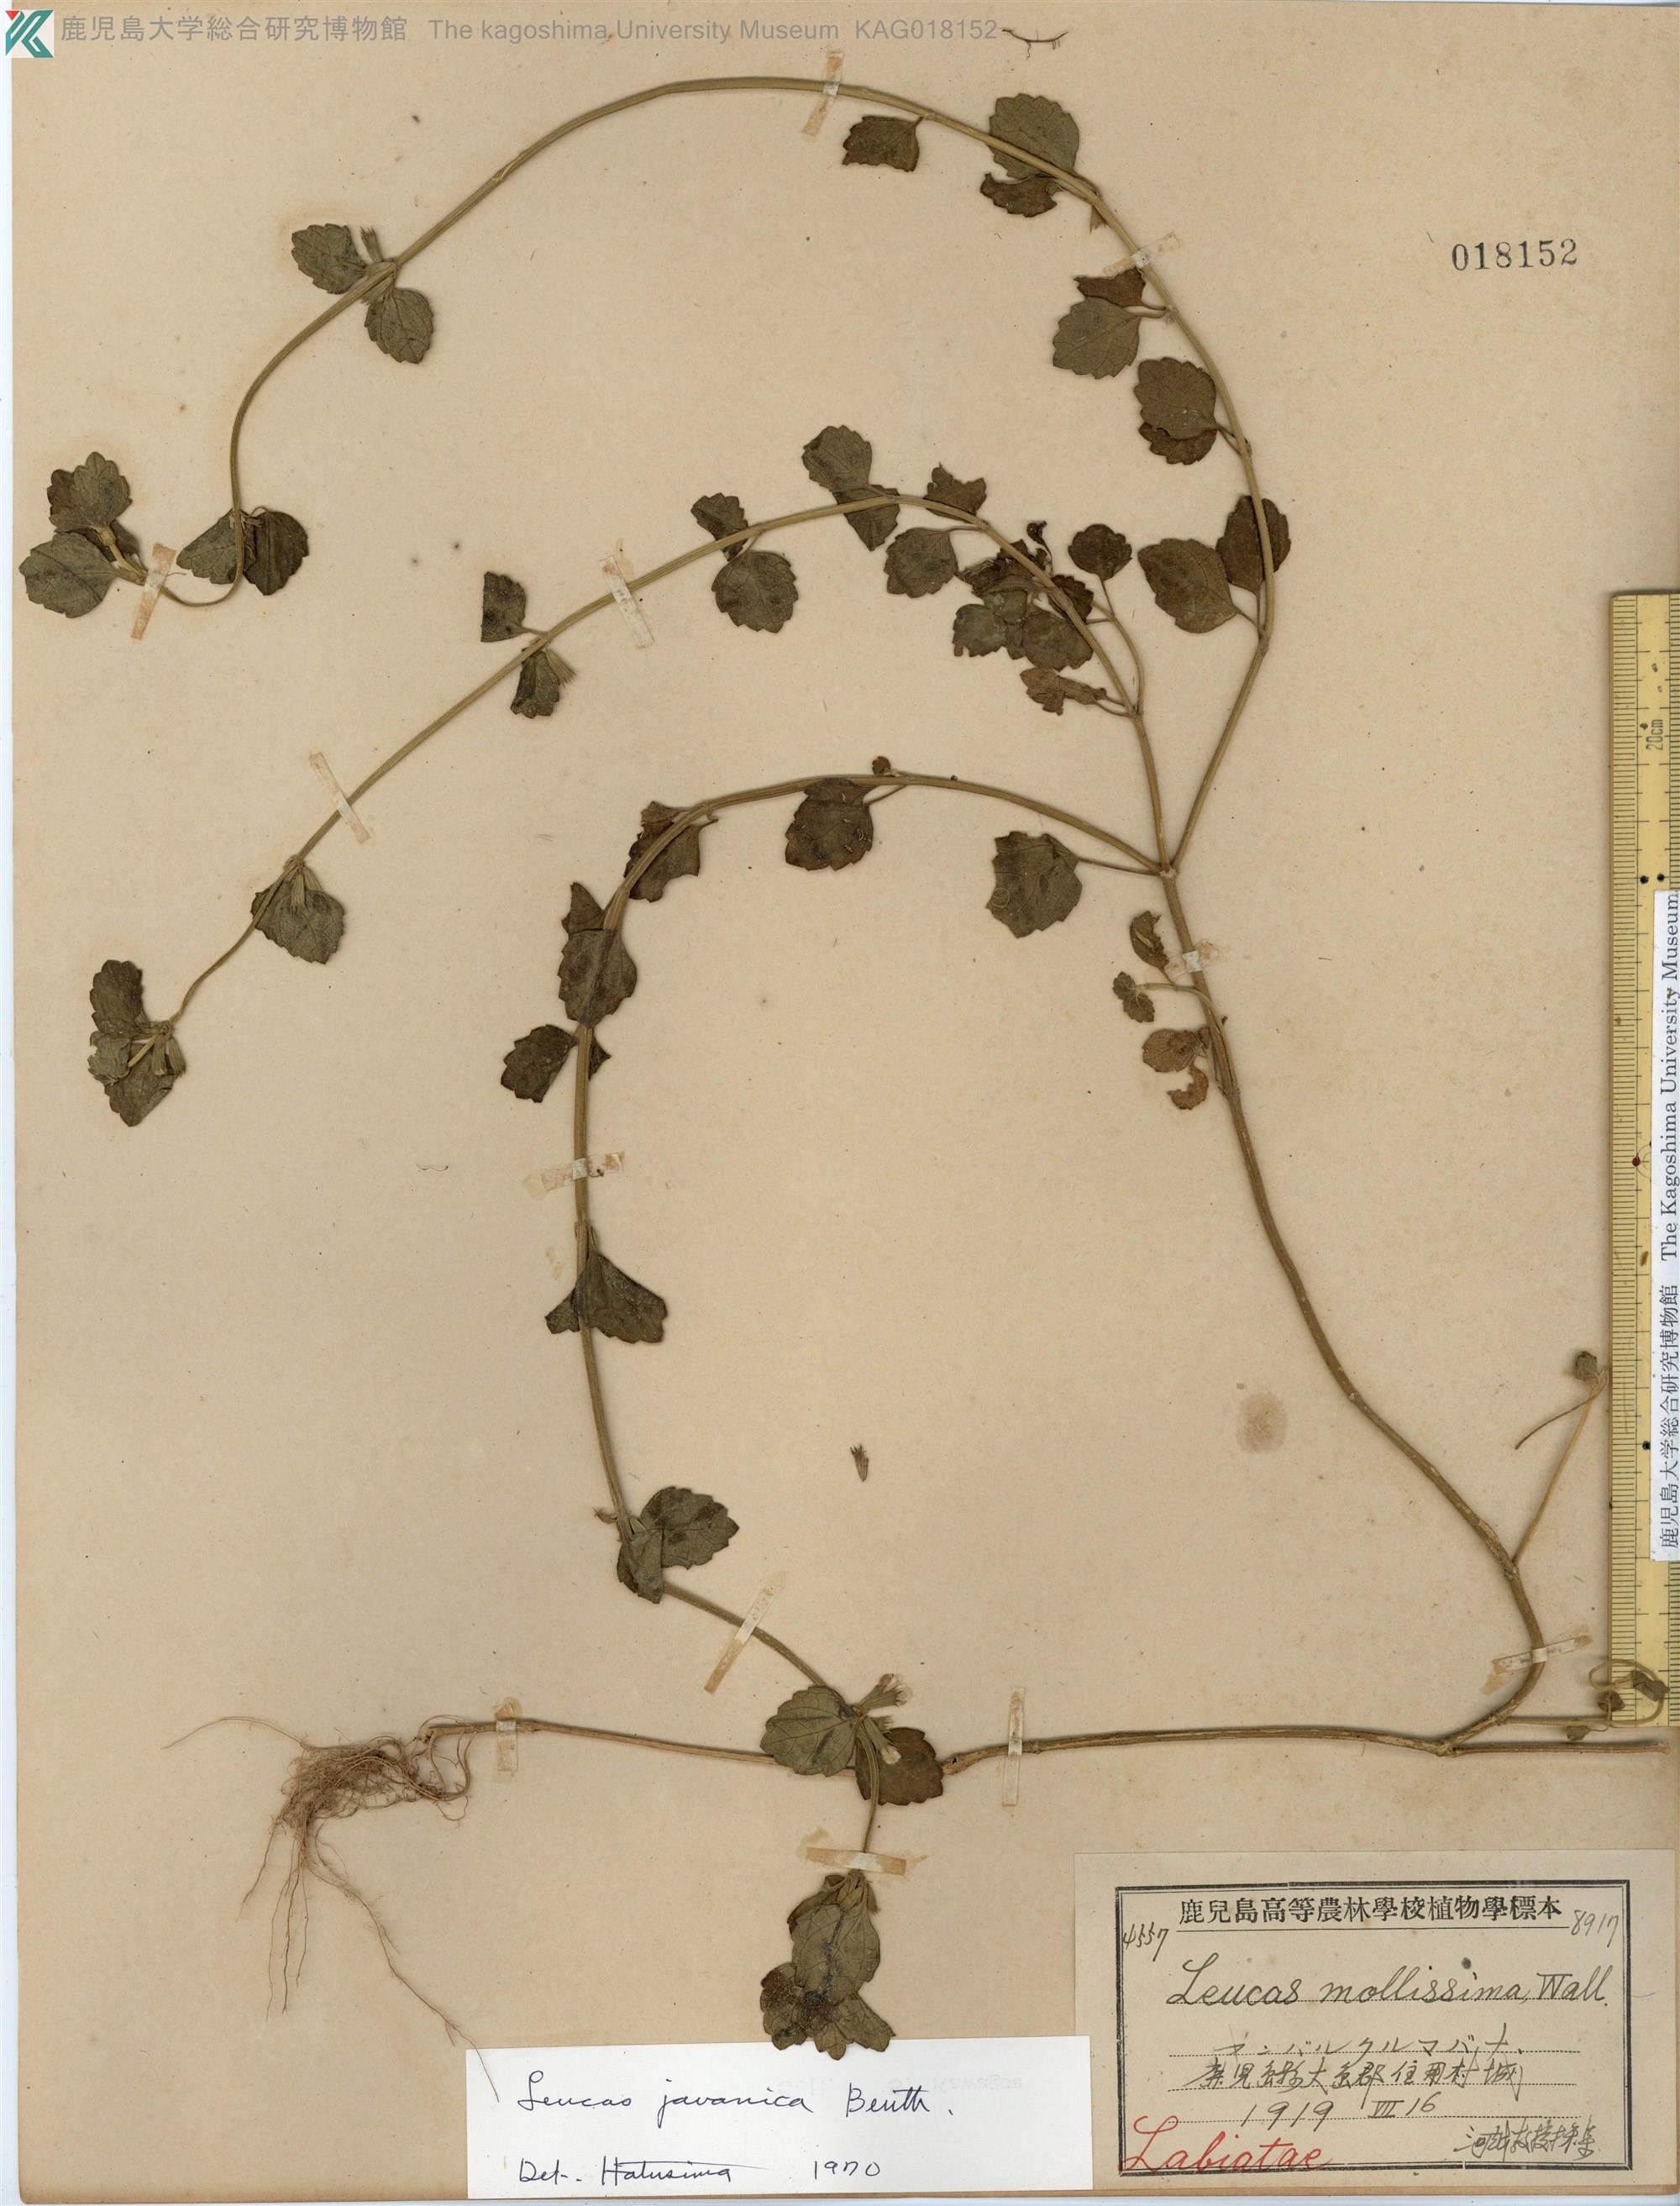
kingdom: Plantae
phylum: Tracheophyta
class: Magnoliopsida
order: Lamiales
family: Lamiaceae
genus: Leucas
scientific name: Leucas chinensis
